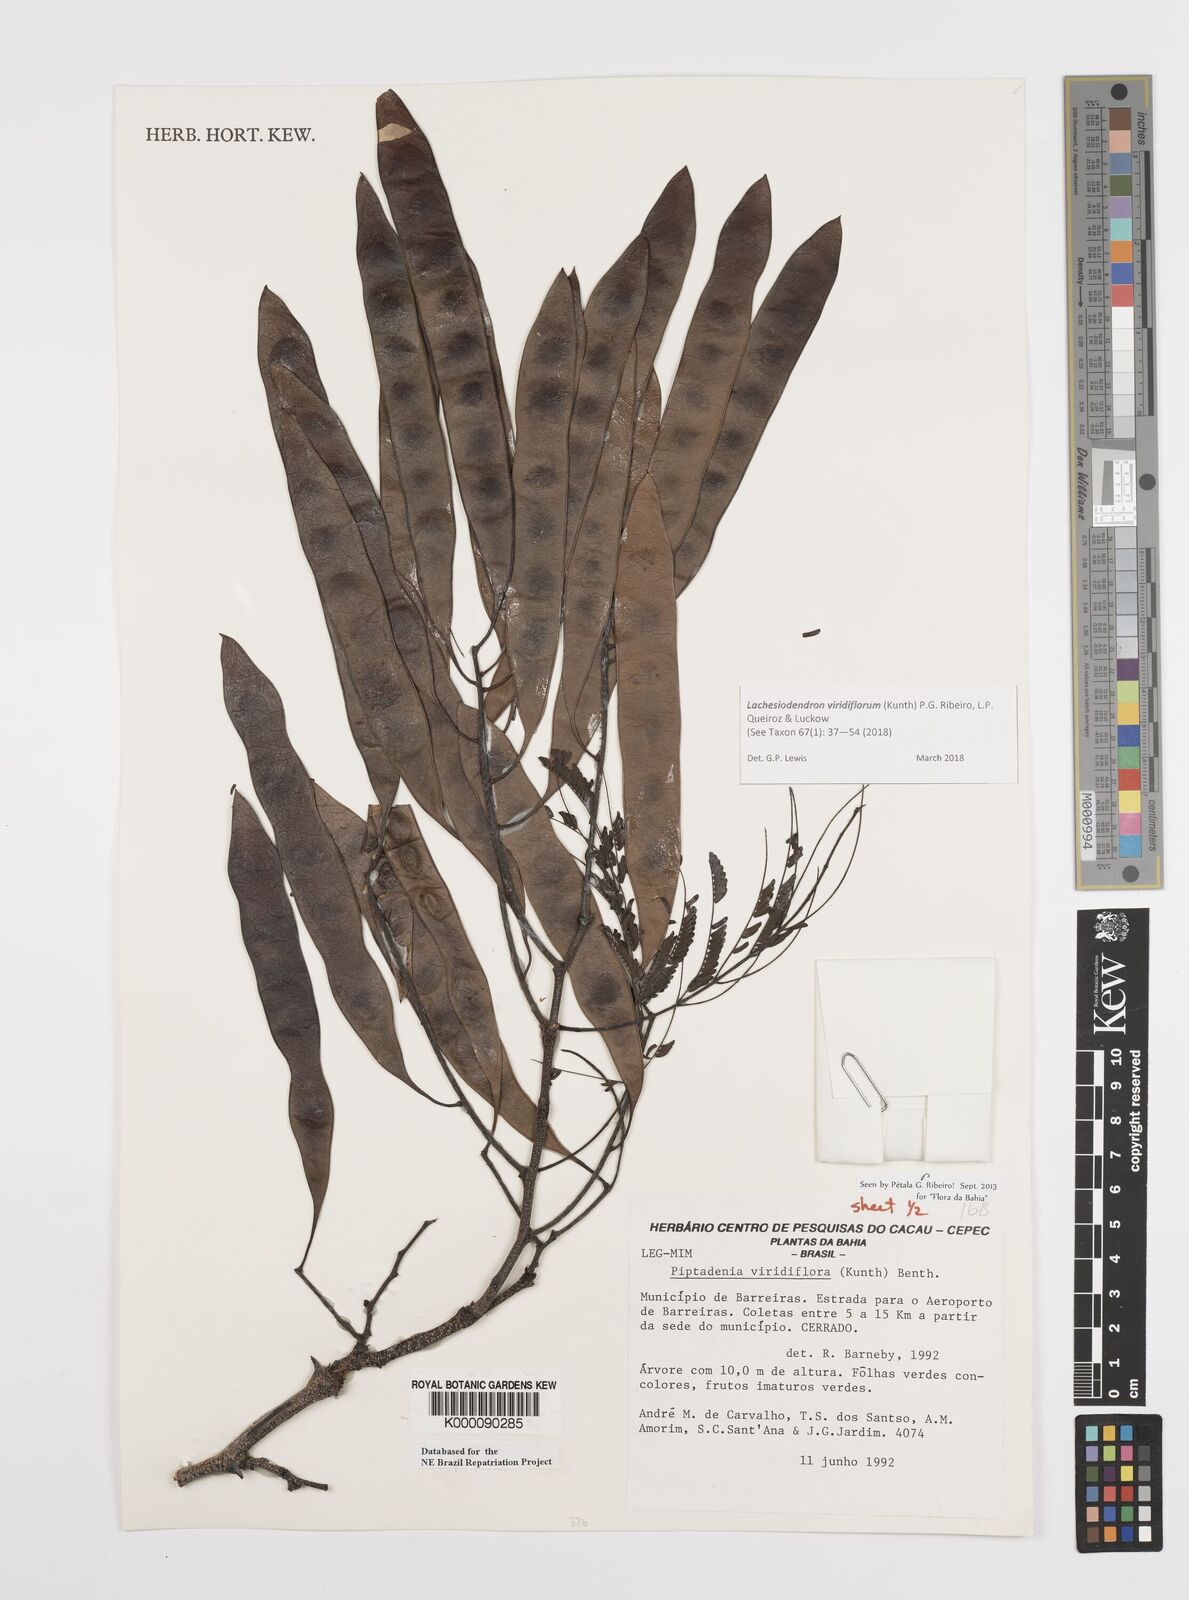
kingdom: Plantae
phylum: Tracheophyta
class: Magnoliopsida
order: Fabales
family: Fabaceae
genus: Lachesiodendron
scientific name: Lachesiodendron viridiflorum
